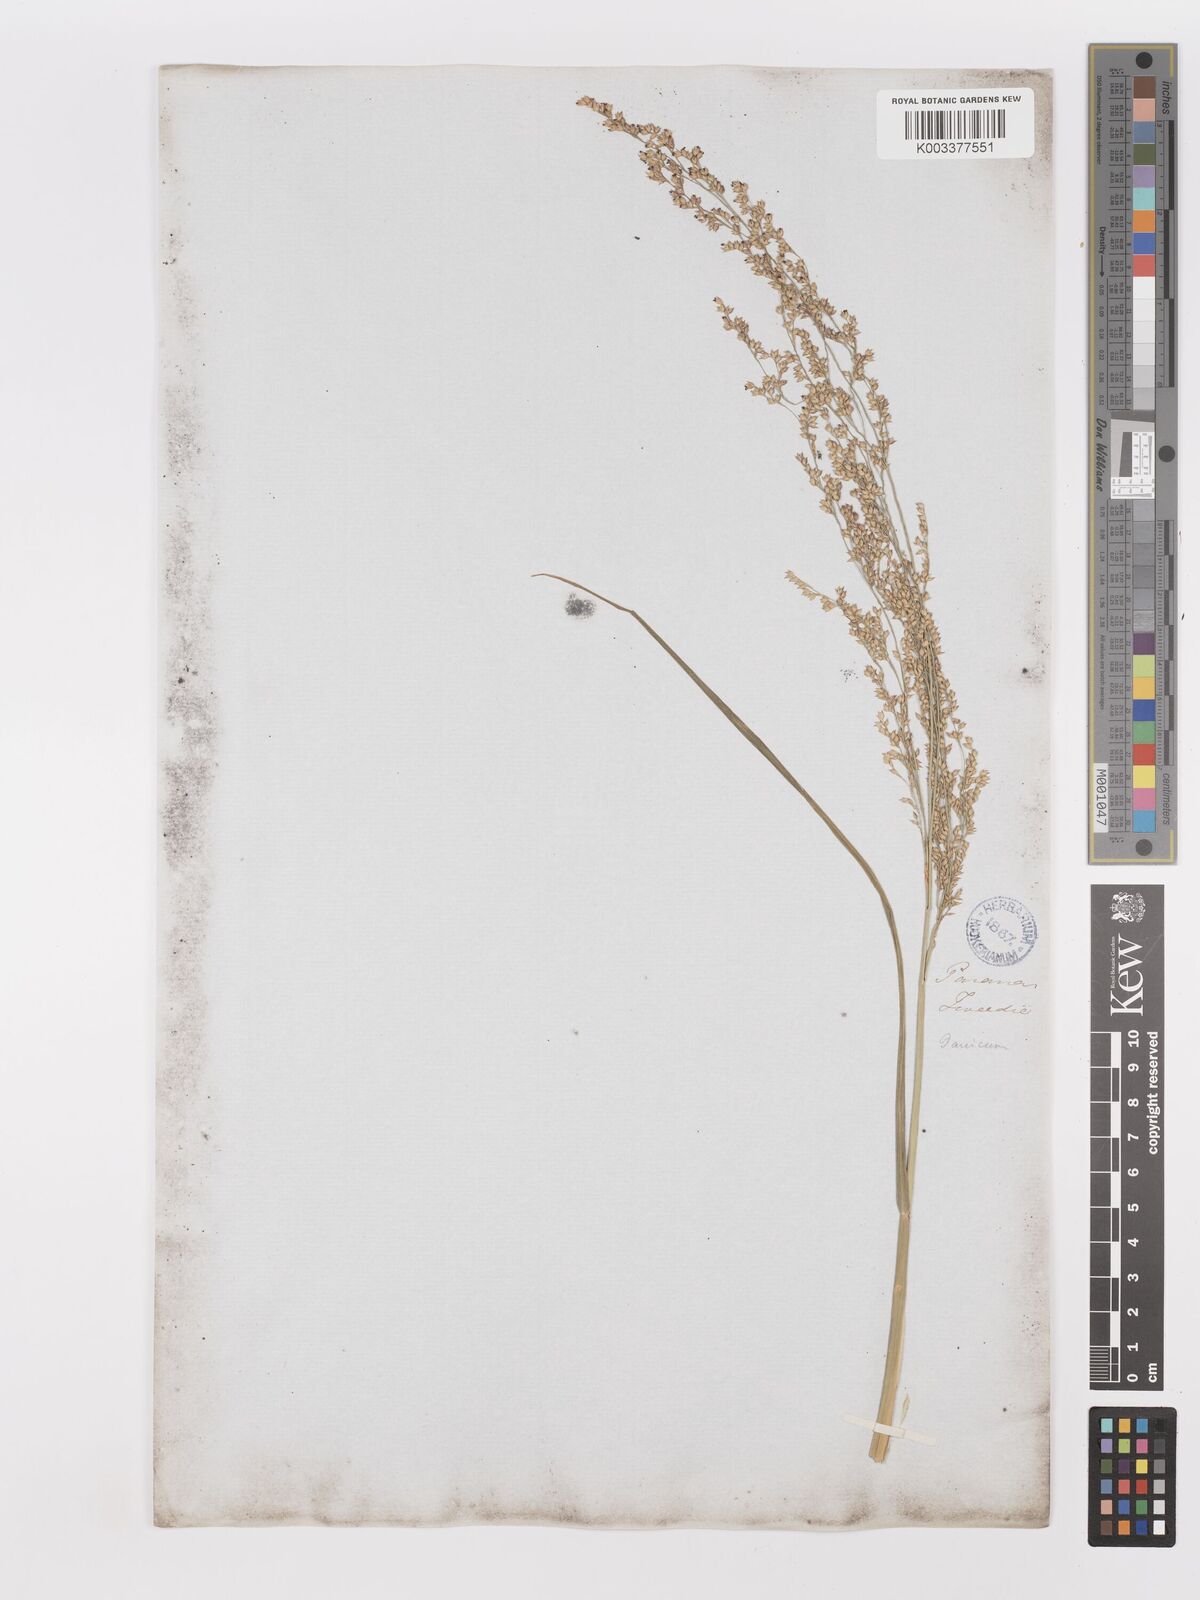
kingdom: Plantae
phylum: Tracheophyta
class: Liliopsida
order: Poales
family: Poaceae
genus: Panicum
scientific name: Panicum tricholaenoides
